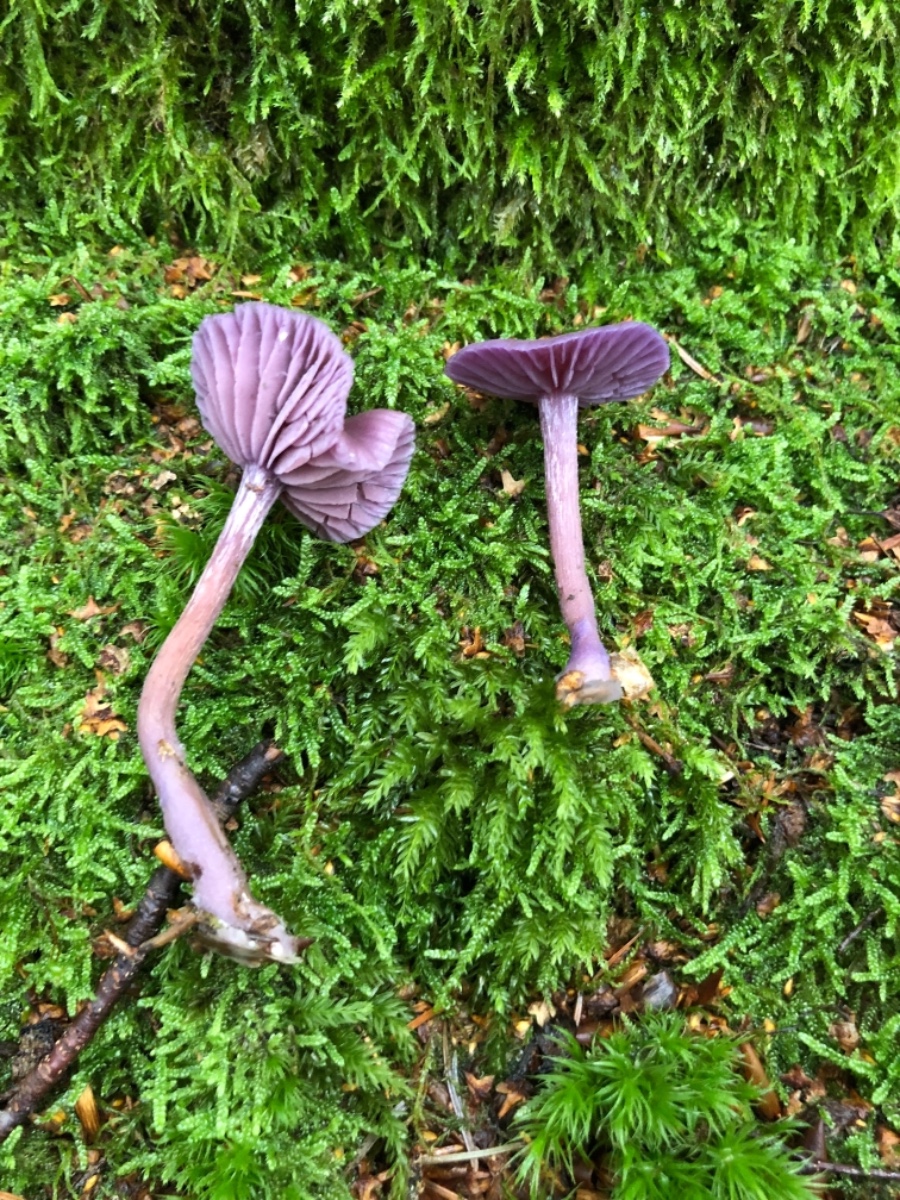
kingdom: Fungi
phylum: Basidiomycota
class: Agaricomycetes
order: Agaricales
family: Hydnangiaceae
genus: Laccaria
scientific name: Laccaria amethystina
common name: violet ametysthat
